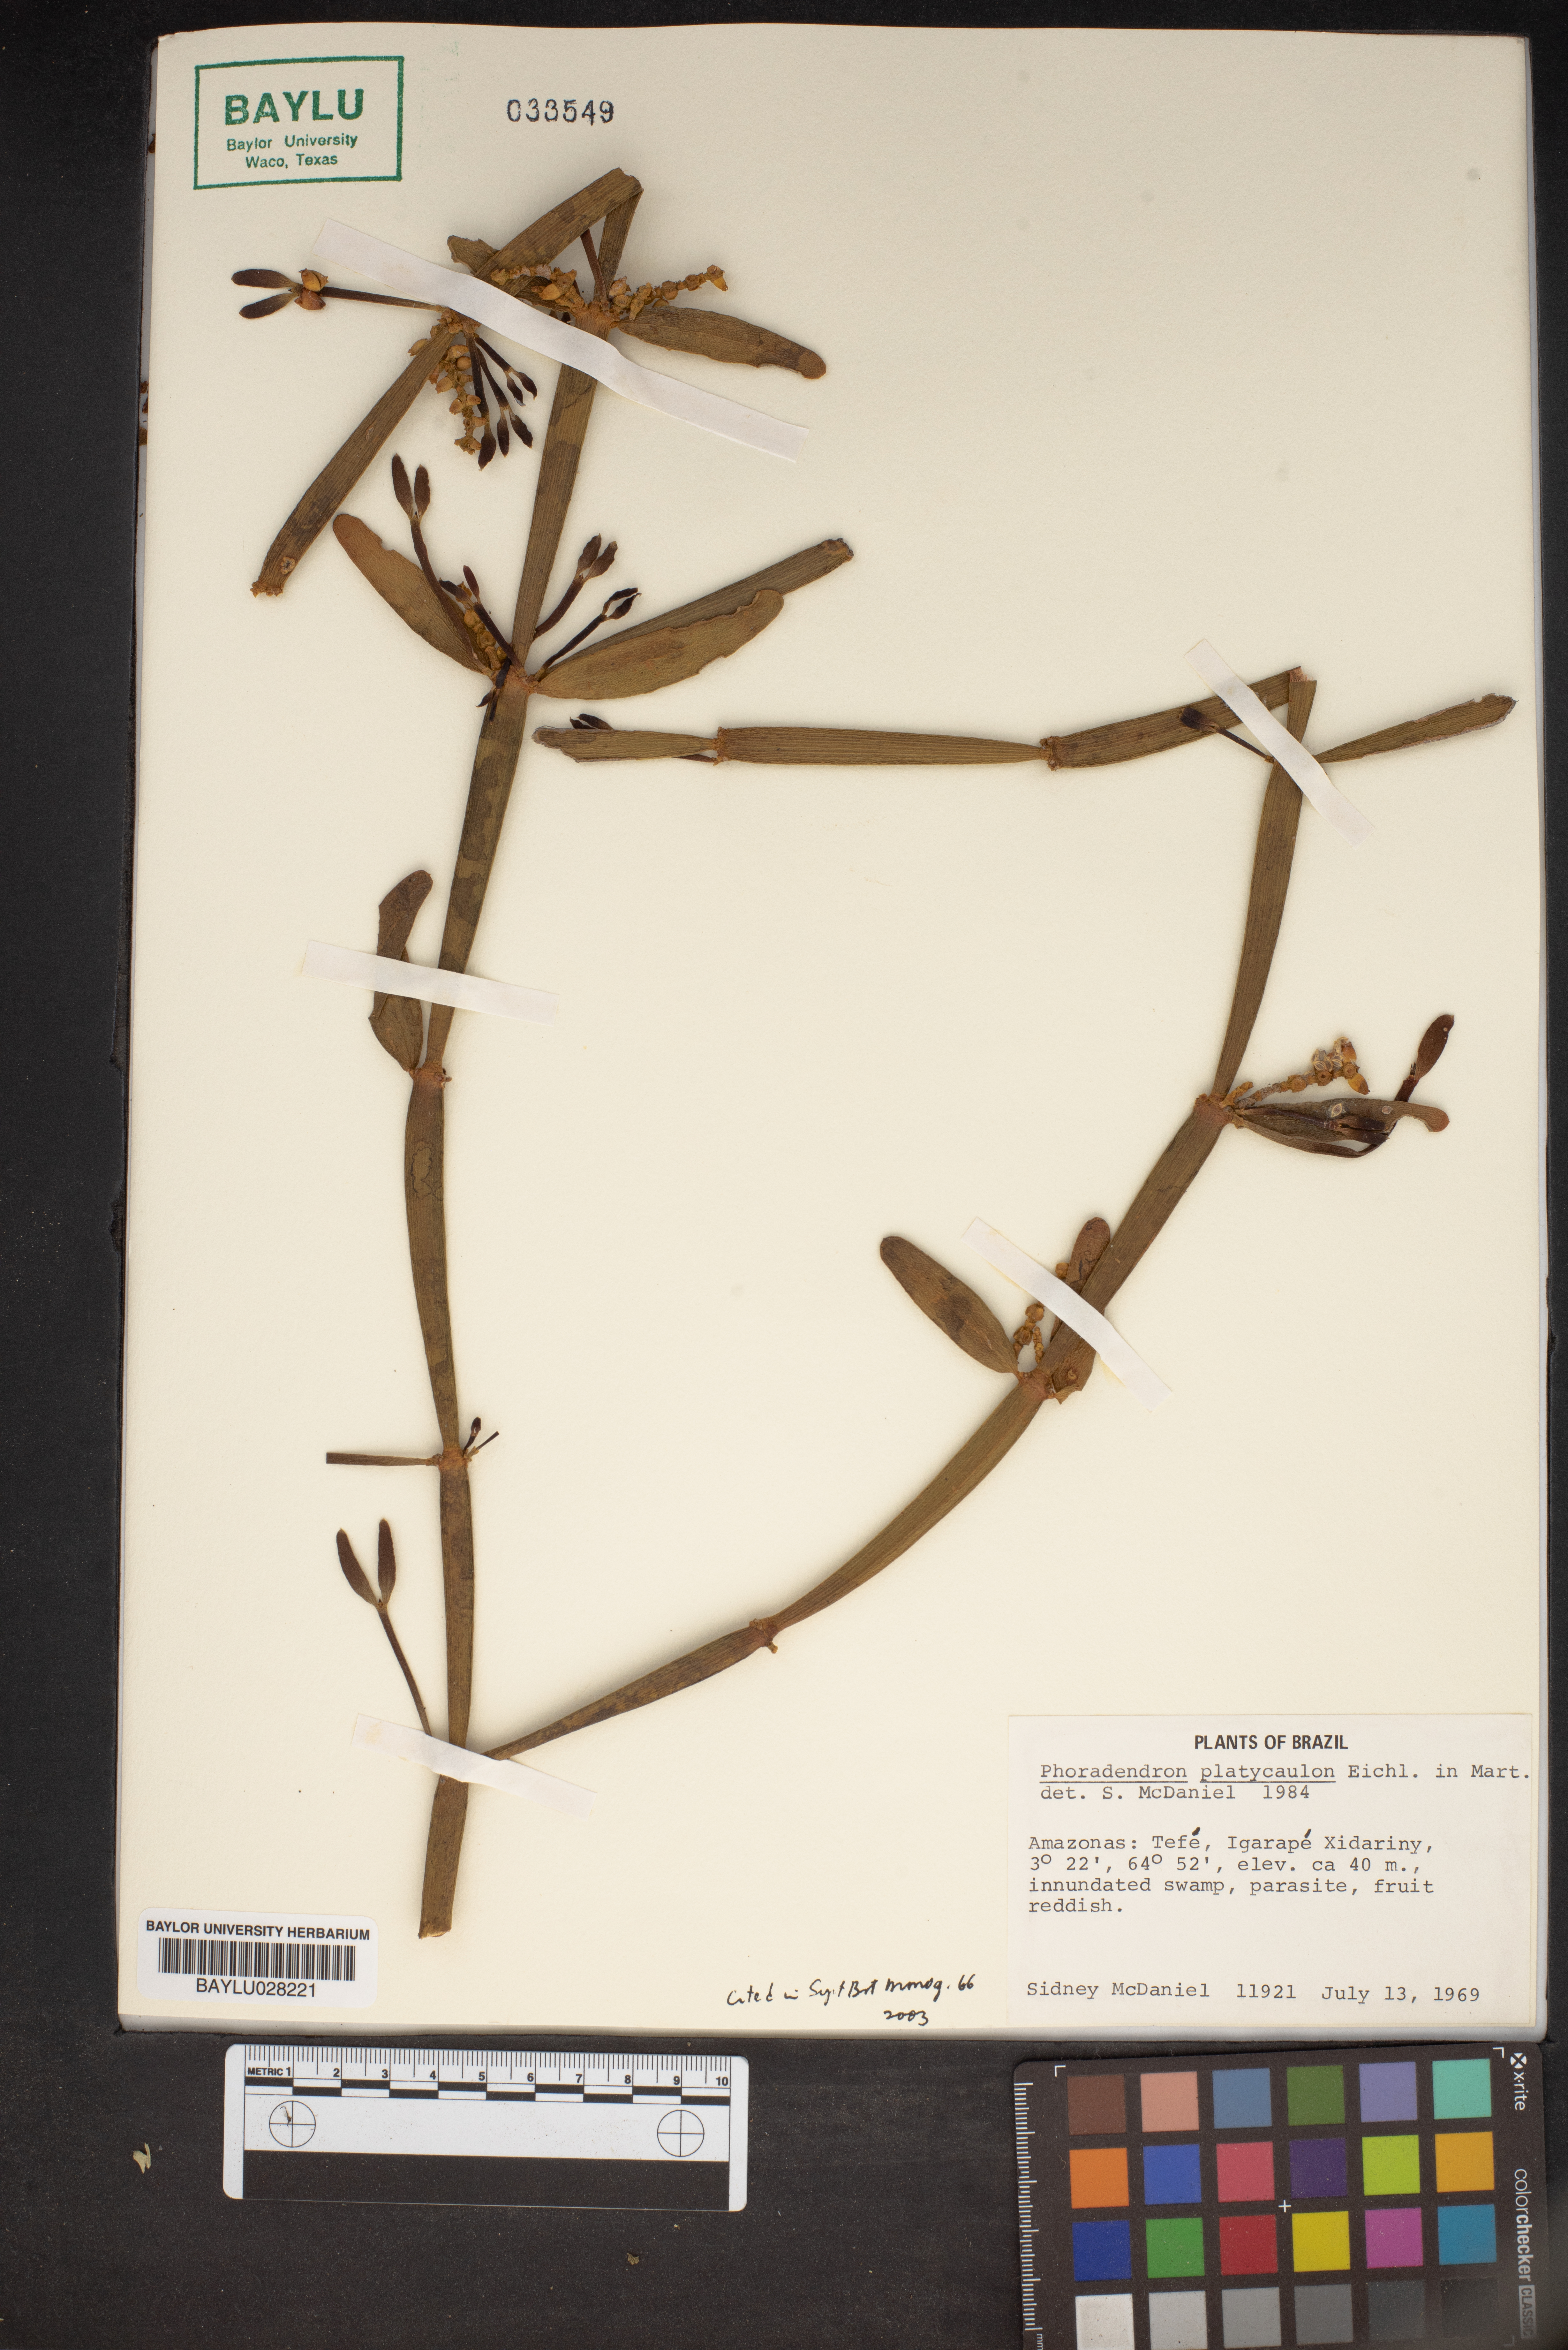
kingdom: Plantae
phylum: Tracheophyta
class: Magnoliopsida
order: Santalales
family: Viscaceae
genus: Phoradendron
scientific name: Phoradendron planiphyllum
